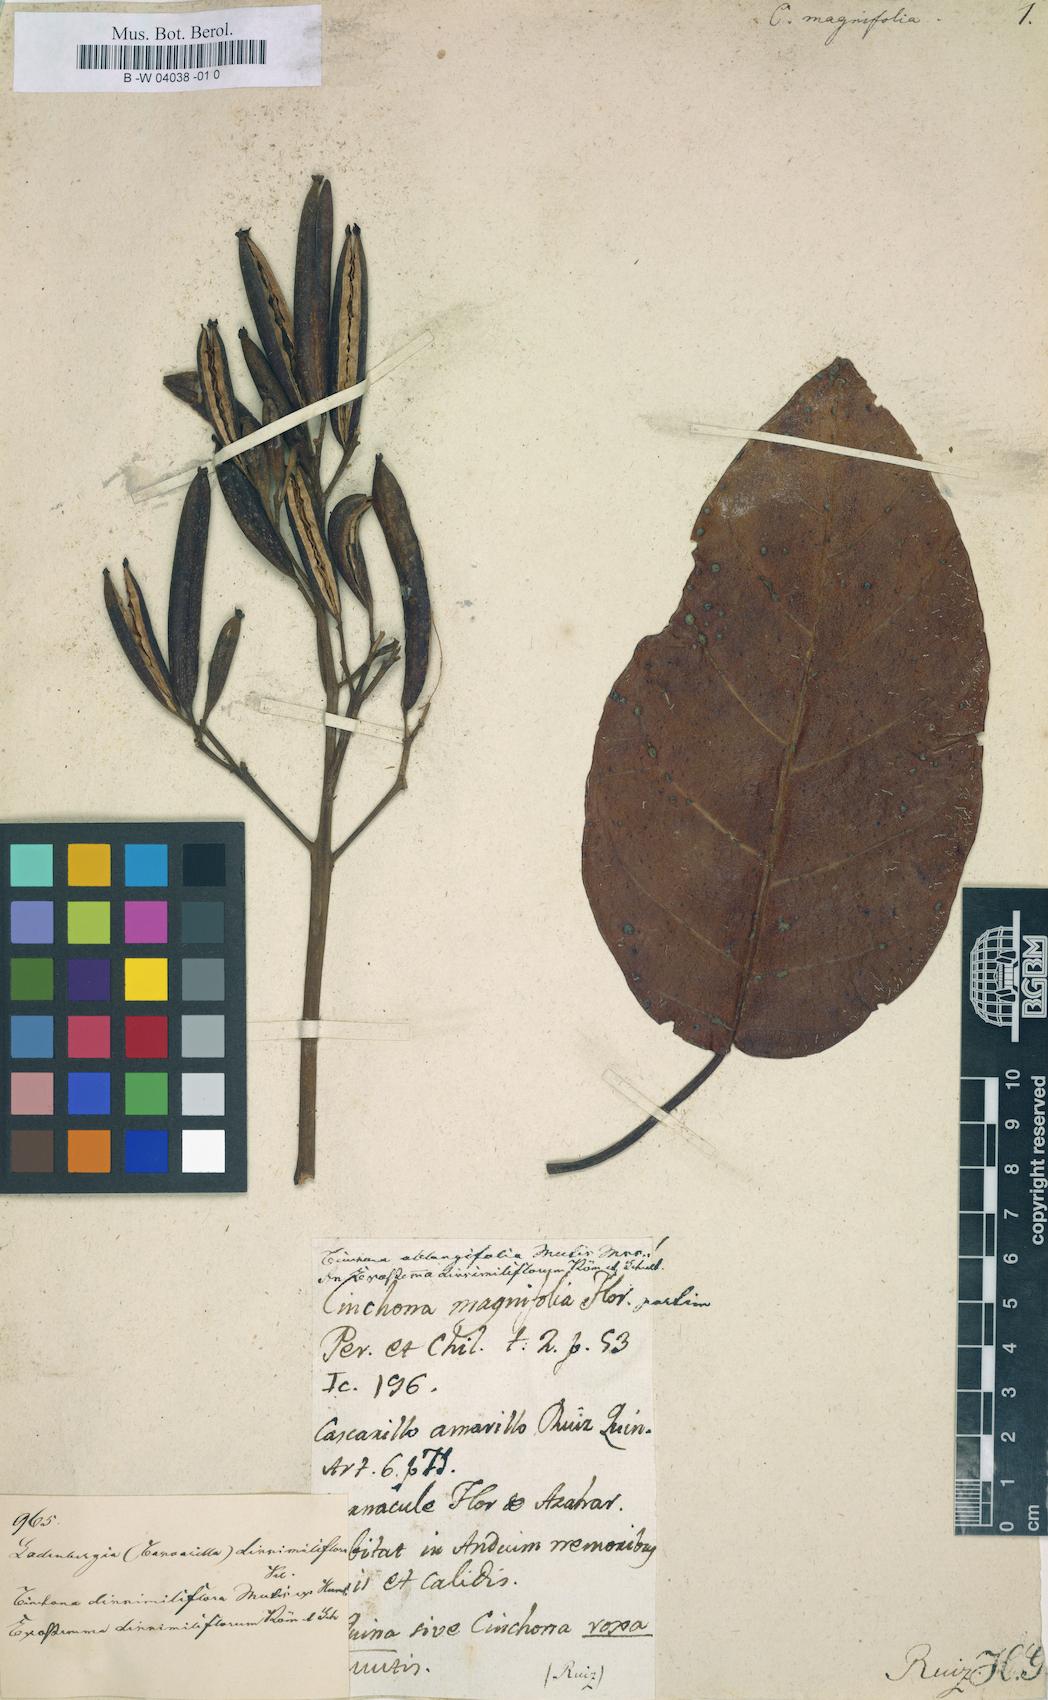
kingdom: Plantae
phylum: Tracheophyta
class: Magnoliopsida
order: Gentianales
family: Rubiaceae
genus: Cinchona
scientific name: Cinchona magnifolia
